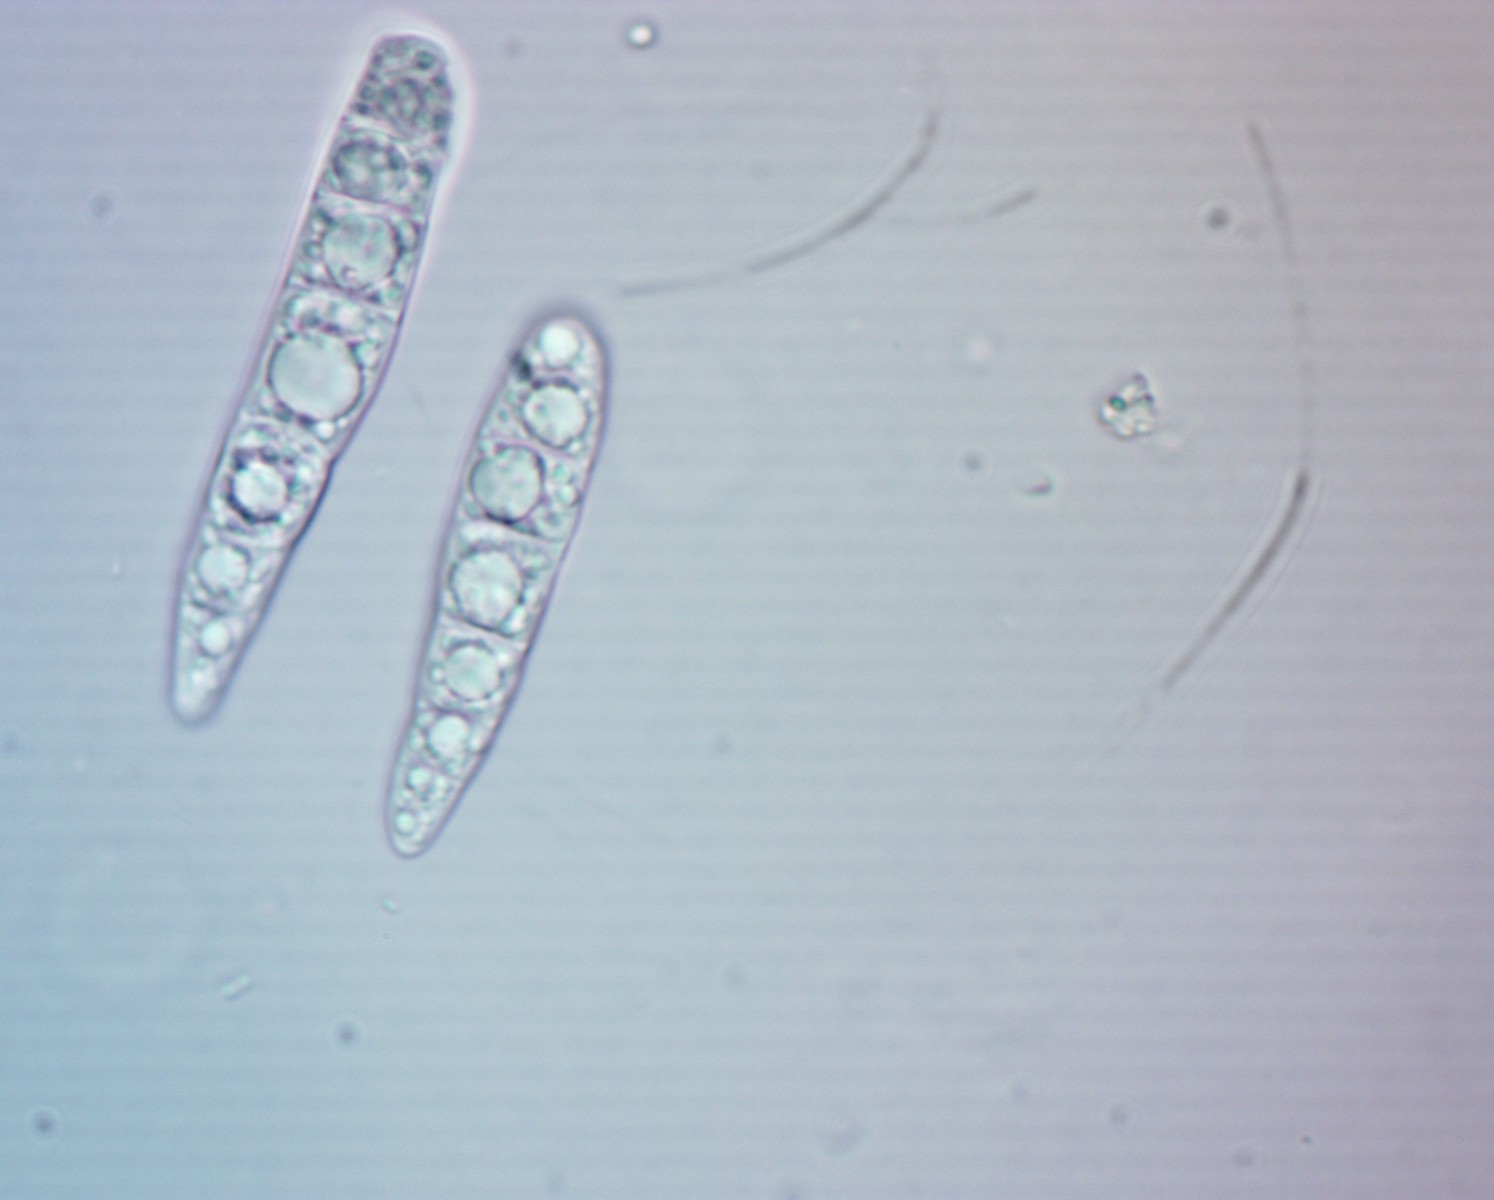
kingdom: Fungi
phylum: Ascomycota
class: Dothideomycetes
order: Pleosporales
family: Phaeosphaeriaceae
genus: Stagonospora
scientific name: Stagonospora paludosa
